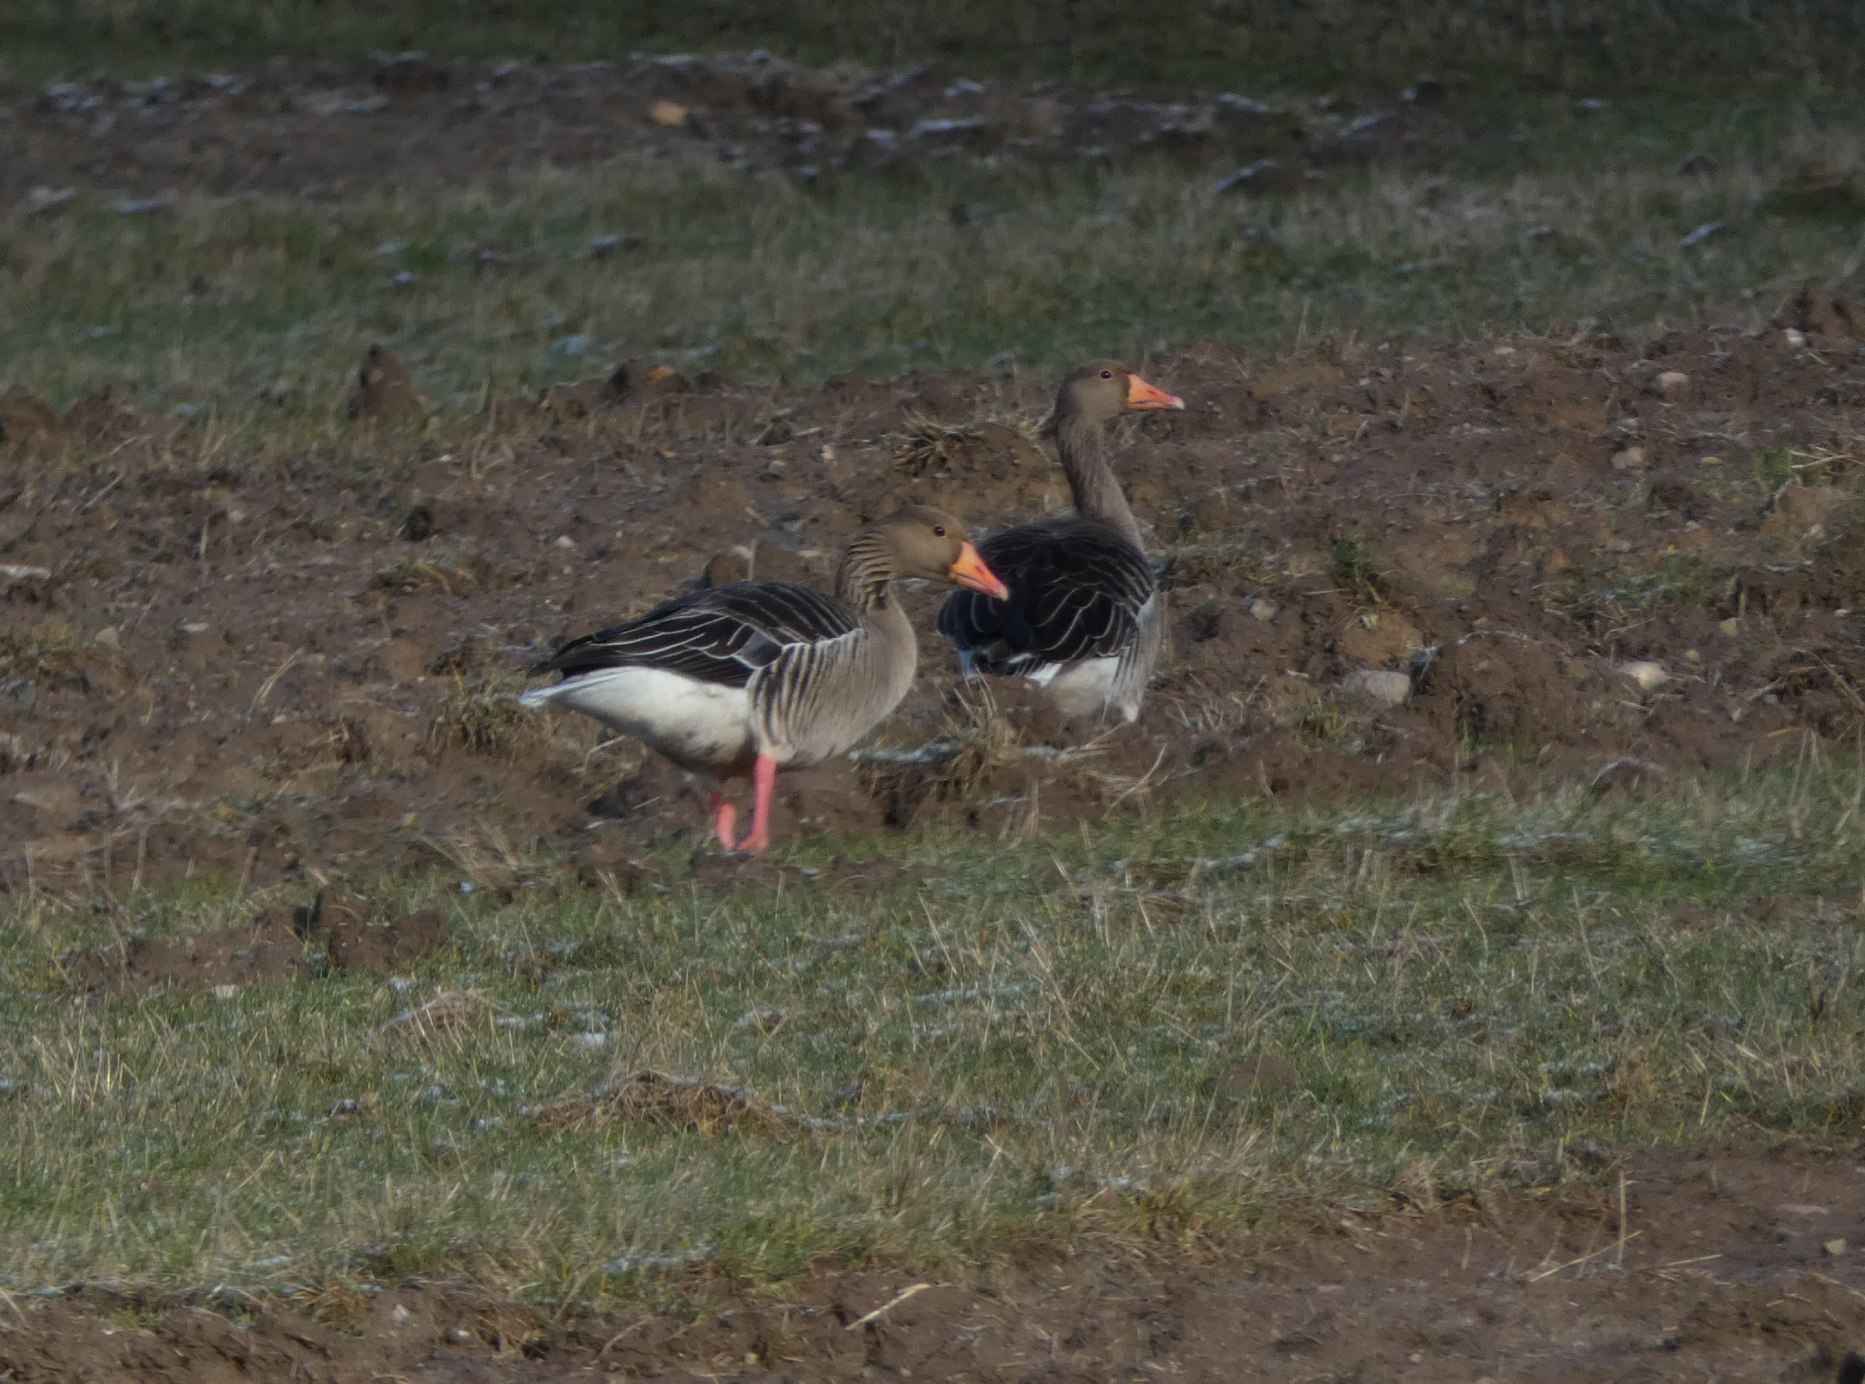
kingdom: Animalia
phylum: Chordata
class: Aves
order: Anseriformes
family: Anatidae
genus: Anser
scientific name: Anser anser
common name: Grågås
